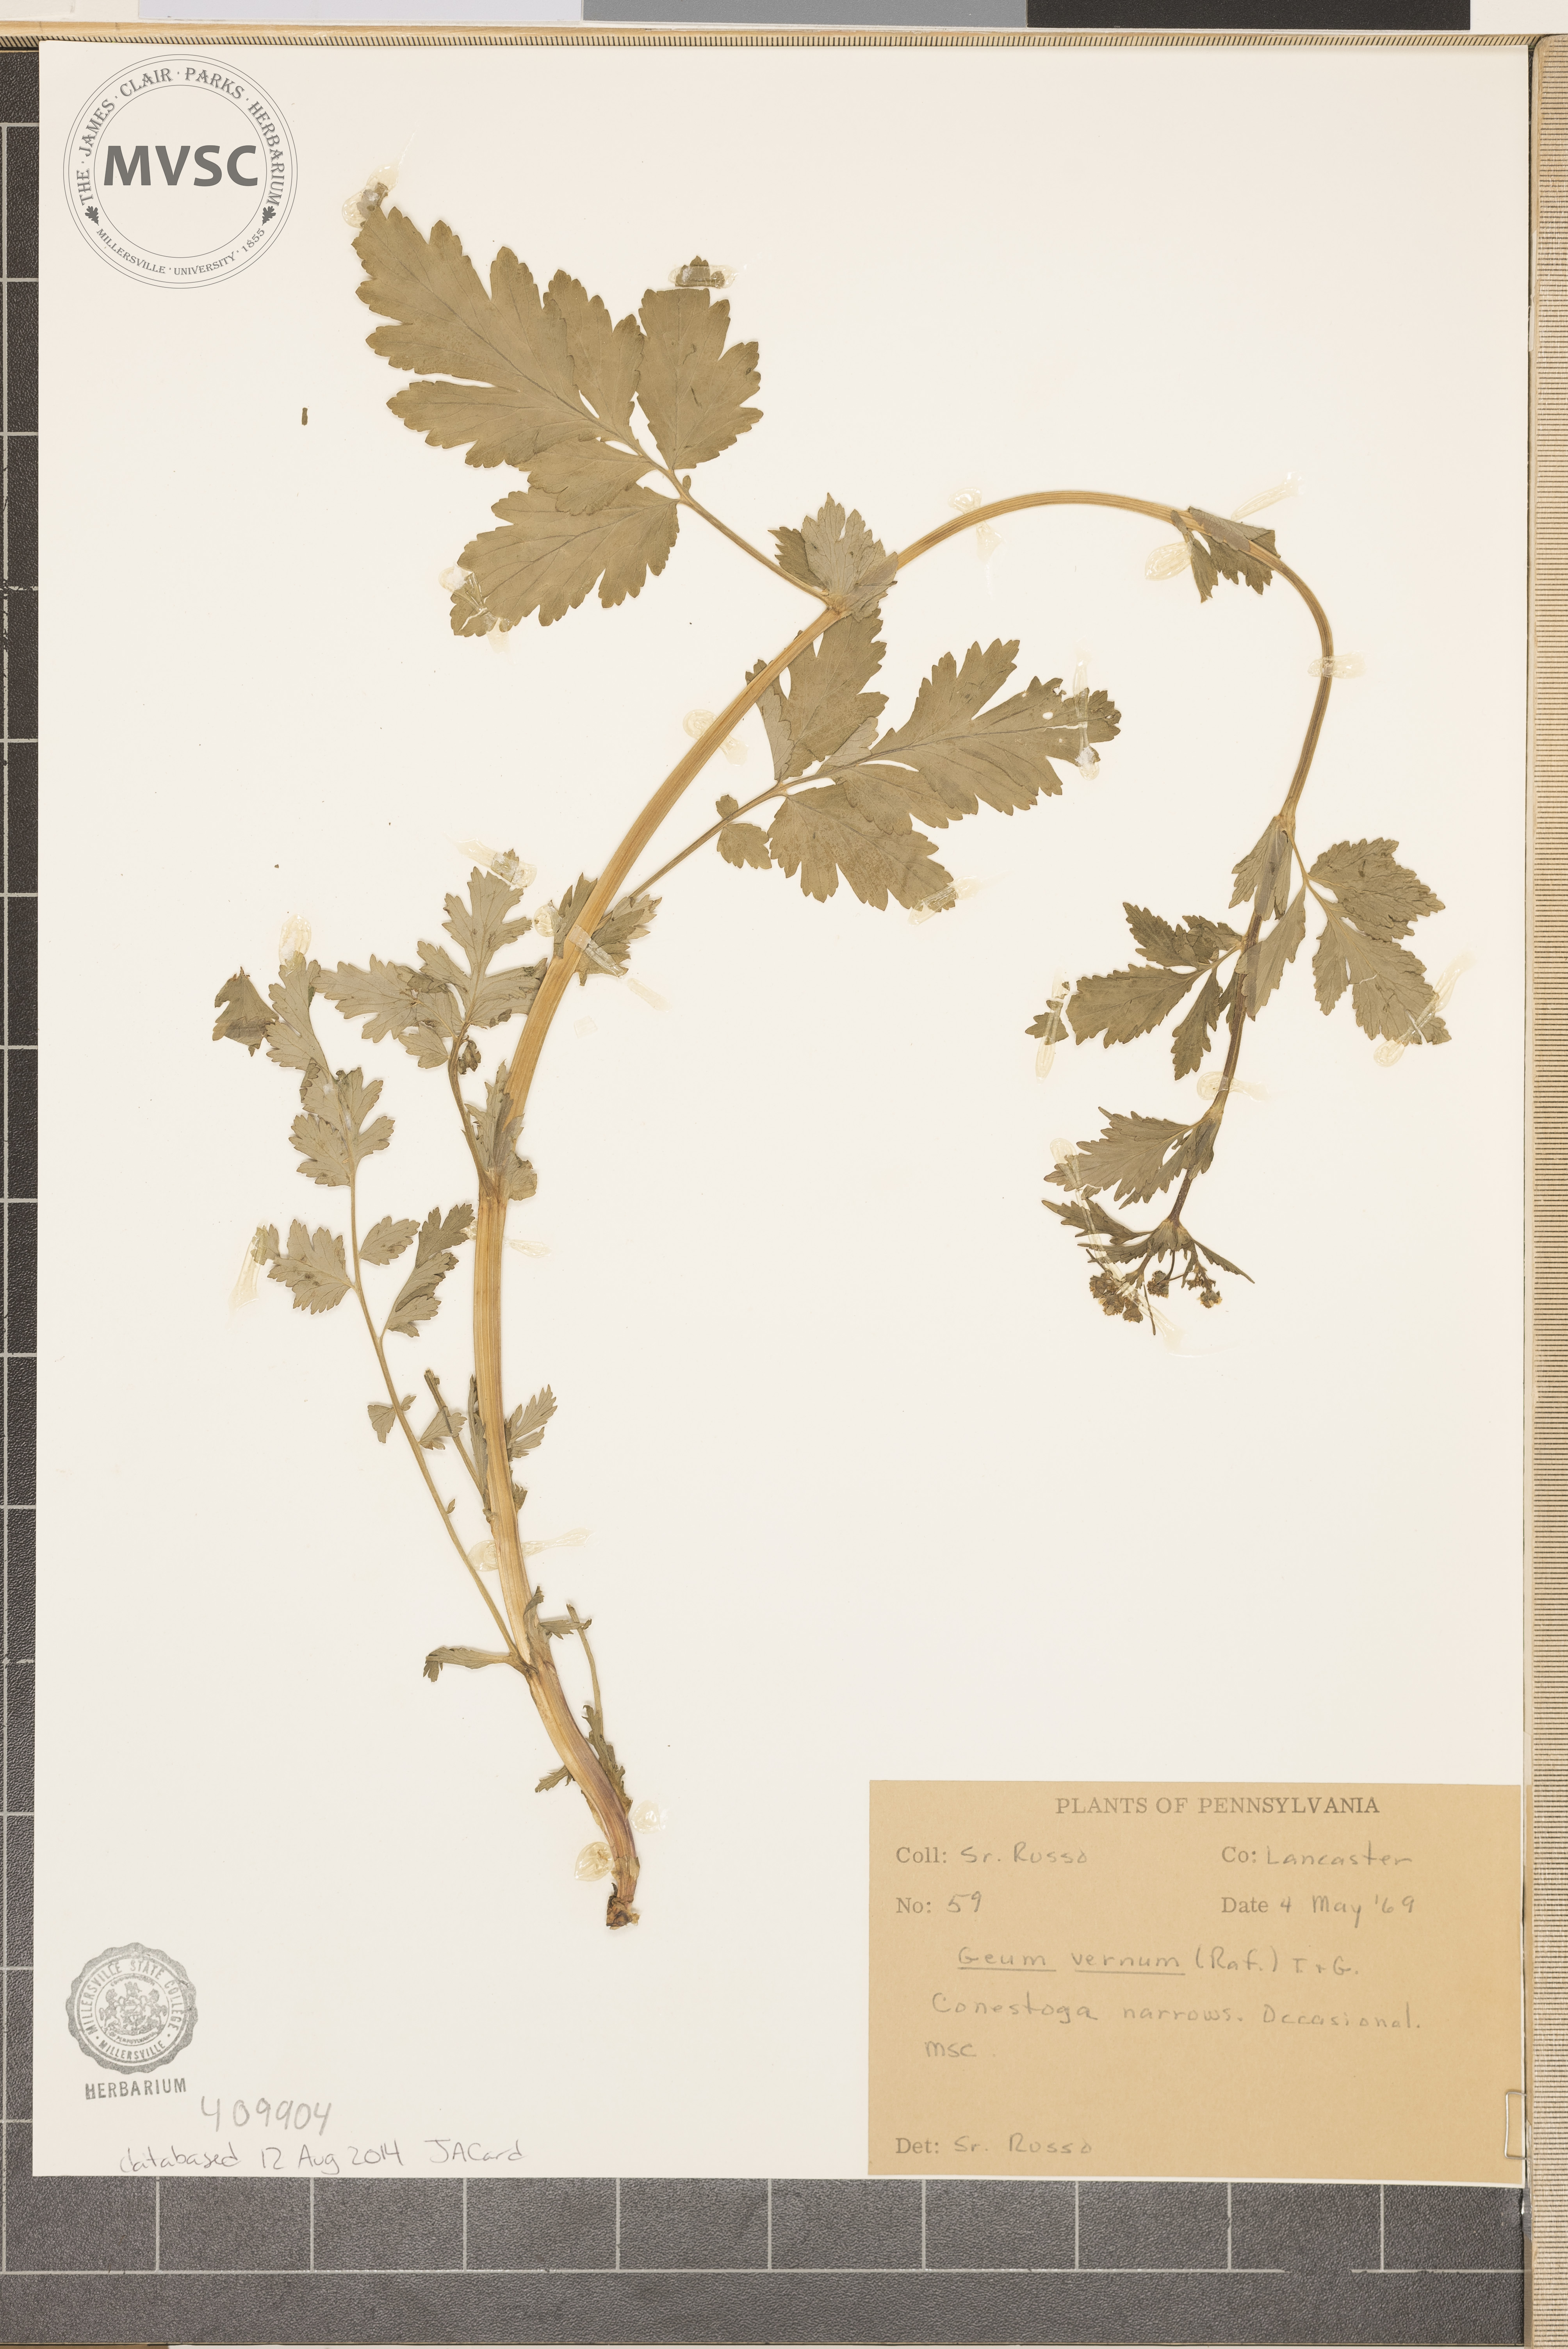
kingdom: Plantae
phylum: Tracheophyta
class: Magnoliopsida
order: Rosales
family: Rosaceae
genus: Geum
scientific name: Geum vernum
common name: Spring avens
